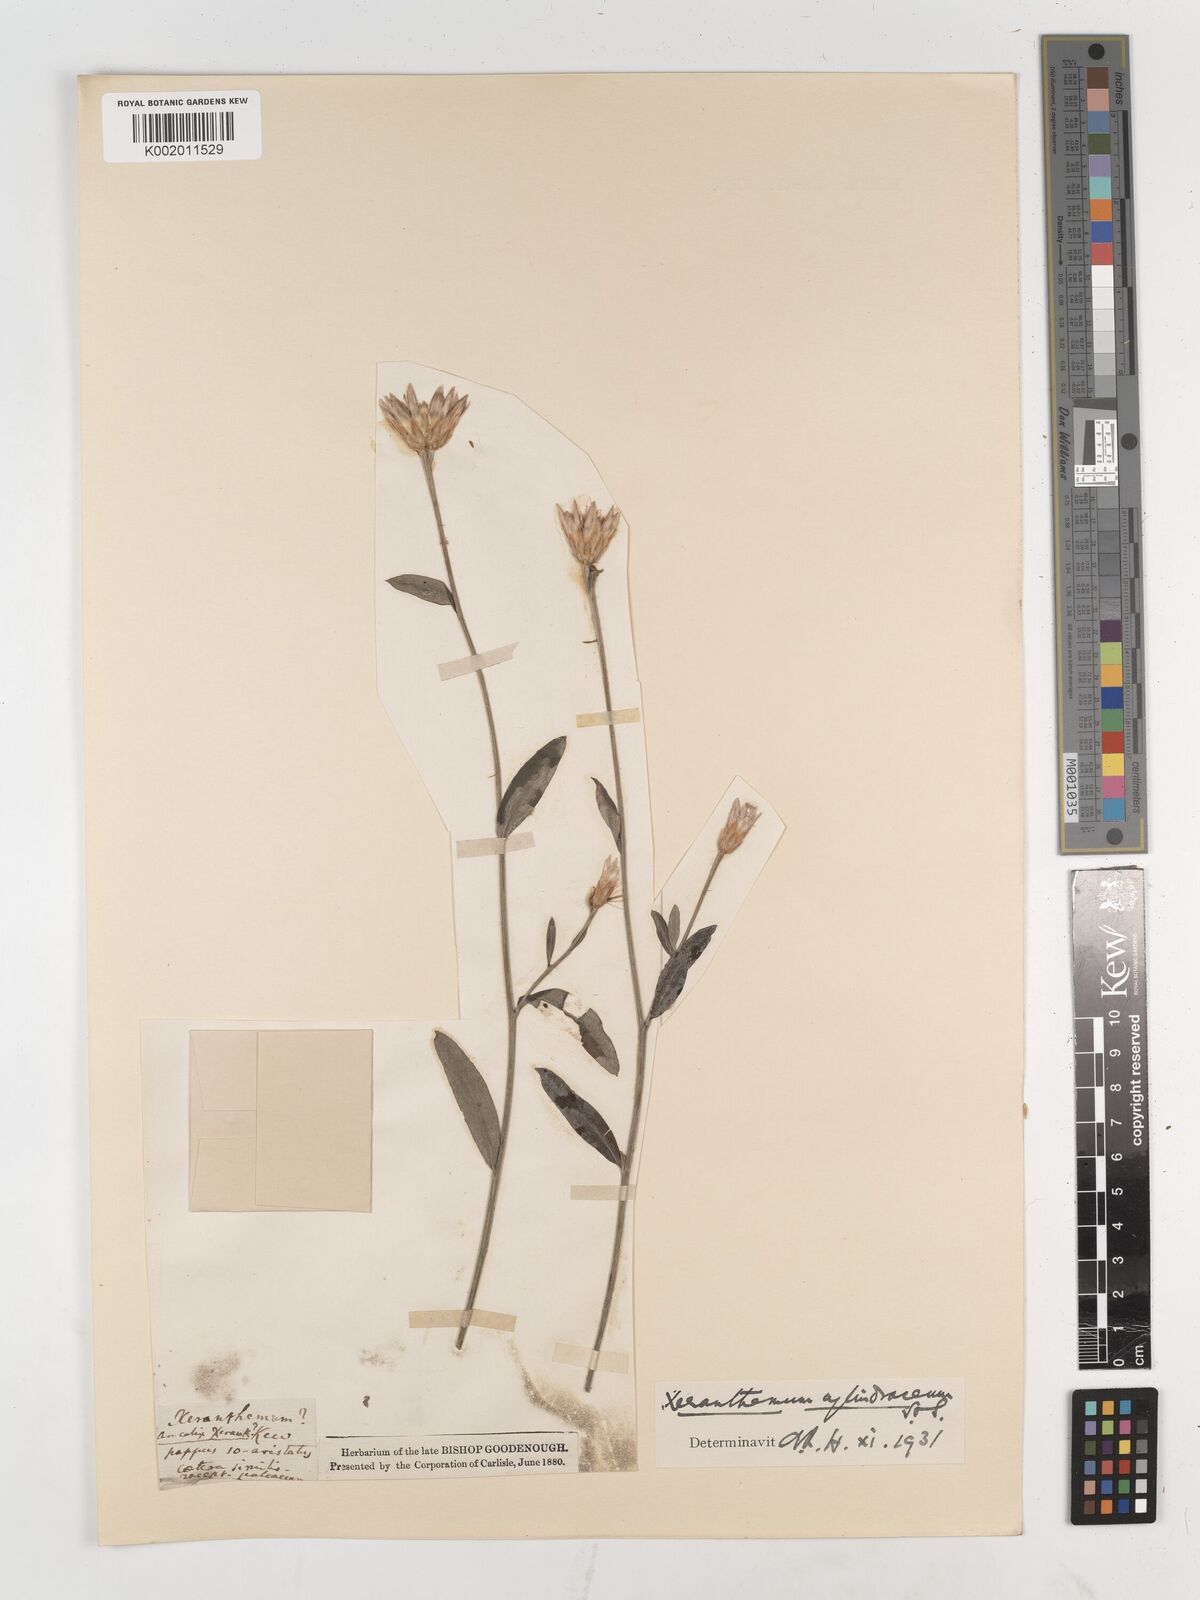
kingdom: Plantae
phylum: Tracheophyta
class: Magnoliopsida
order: Asterales
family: Asteraceae
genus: Xeranthemum
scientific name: Xeranthemum
